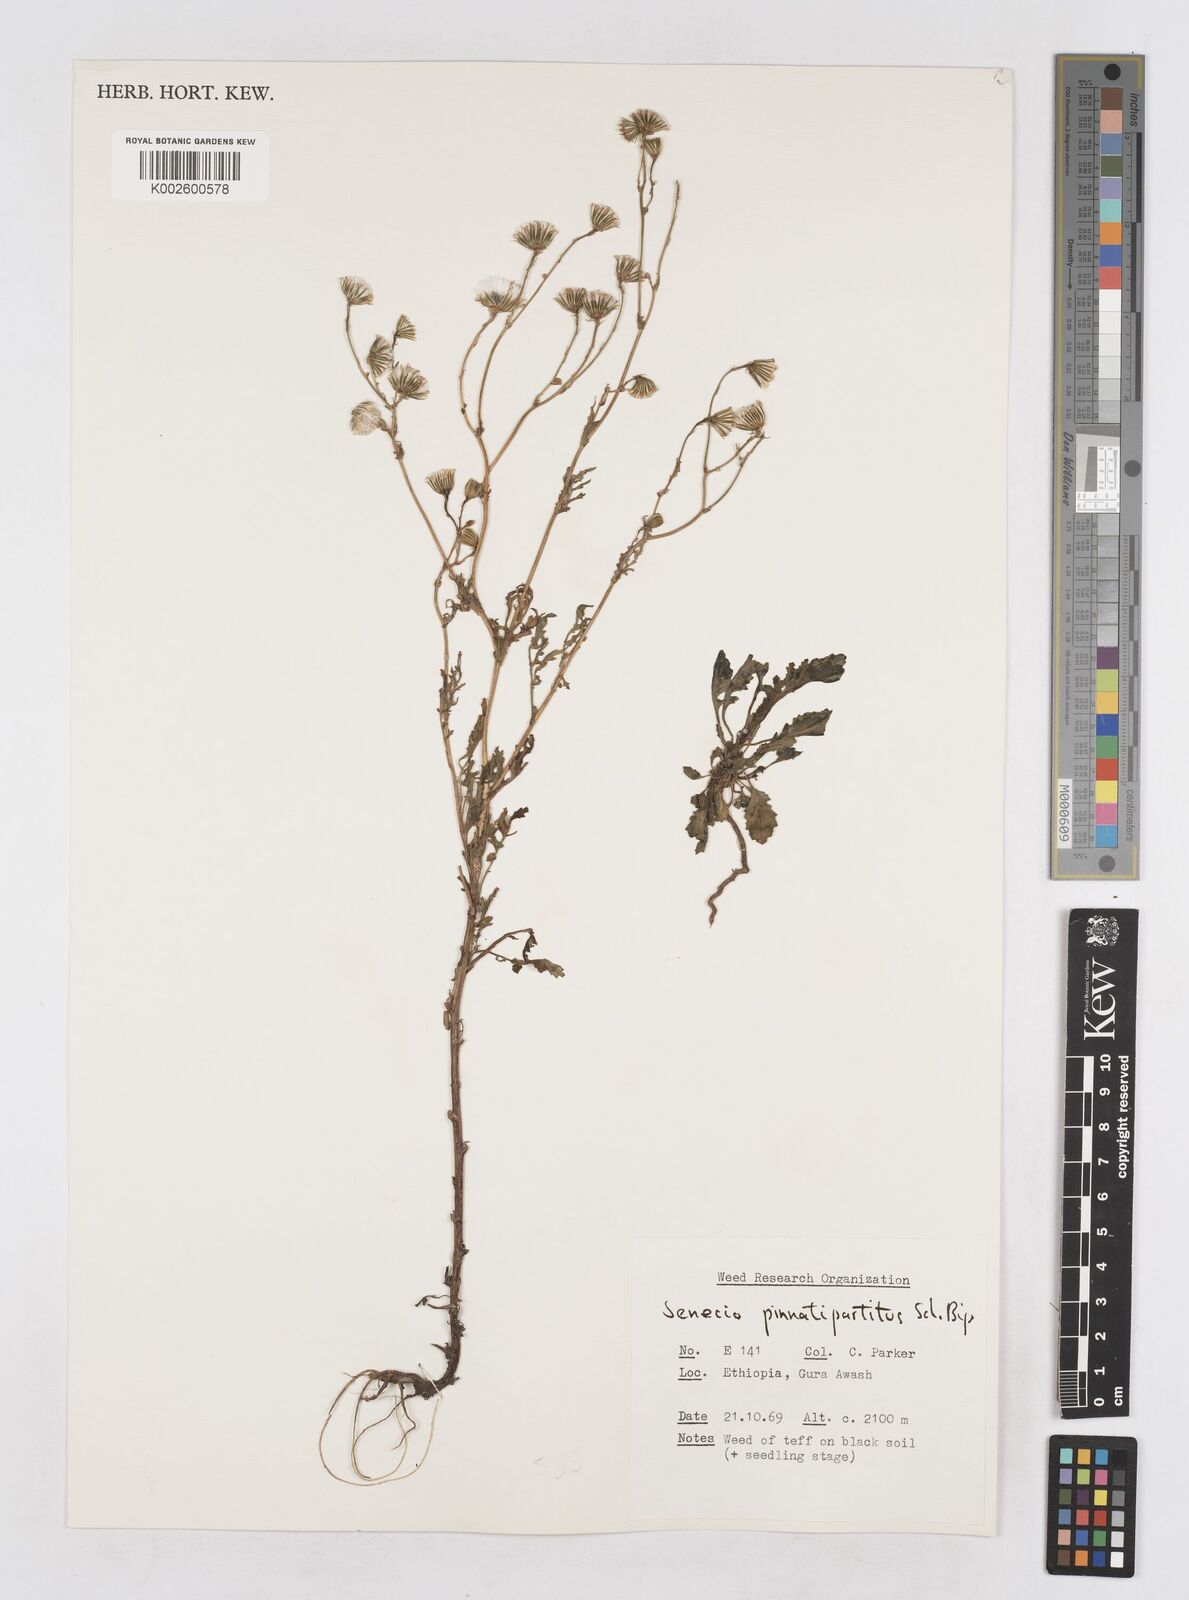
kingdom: Plantae
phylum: Tracheophyta
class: Magnoliopsida
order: Asterales
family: Asteraceae
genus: Senecio
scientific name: Senecio pinnatipartitus
